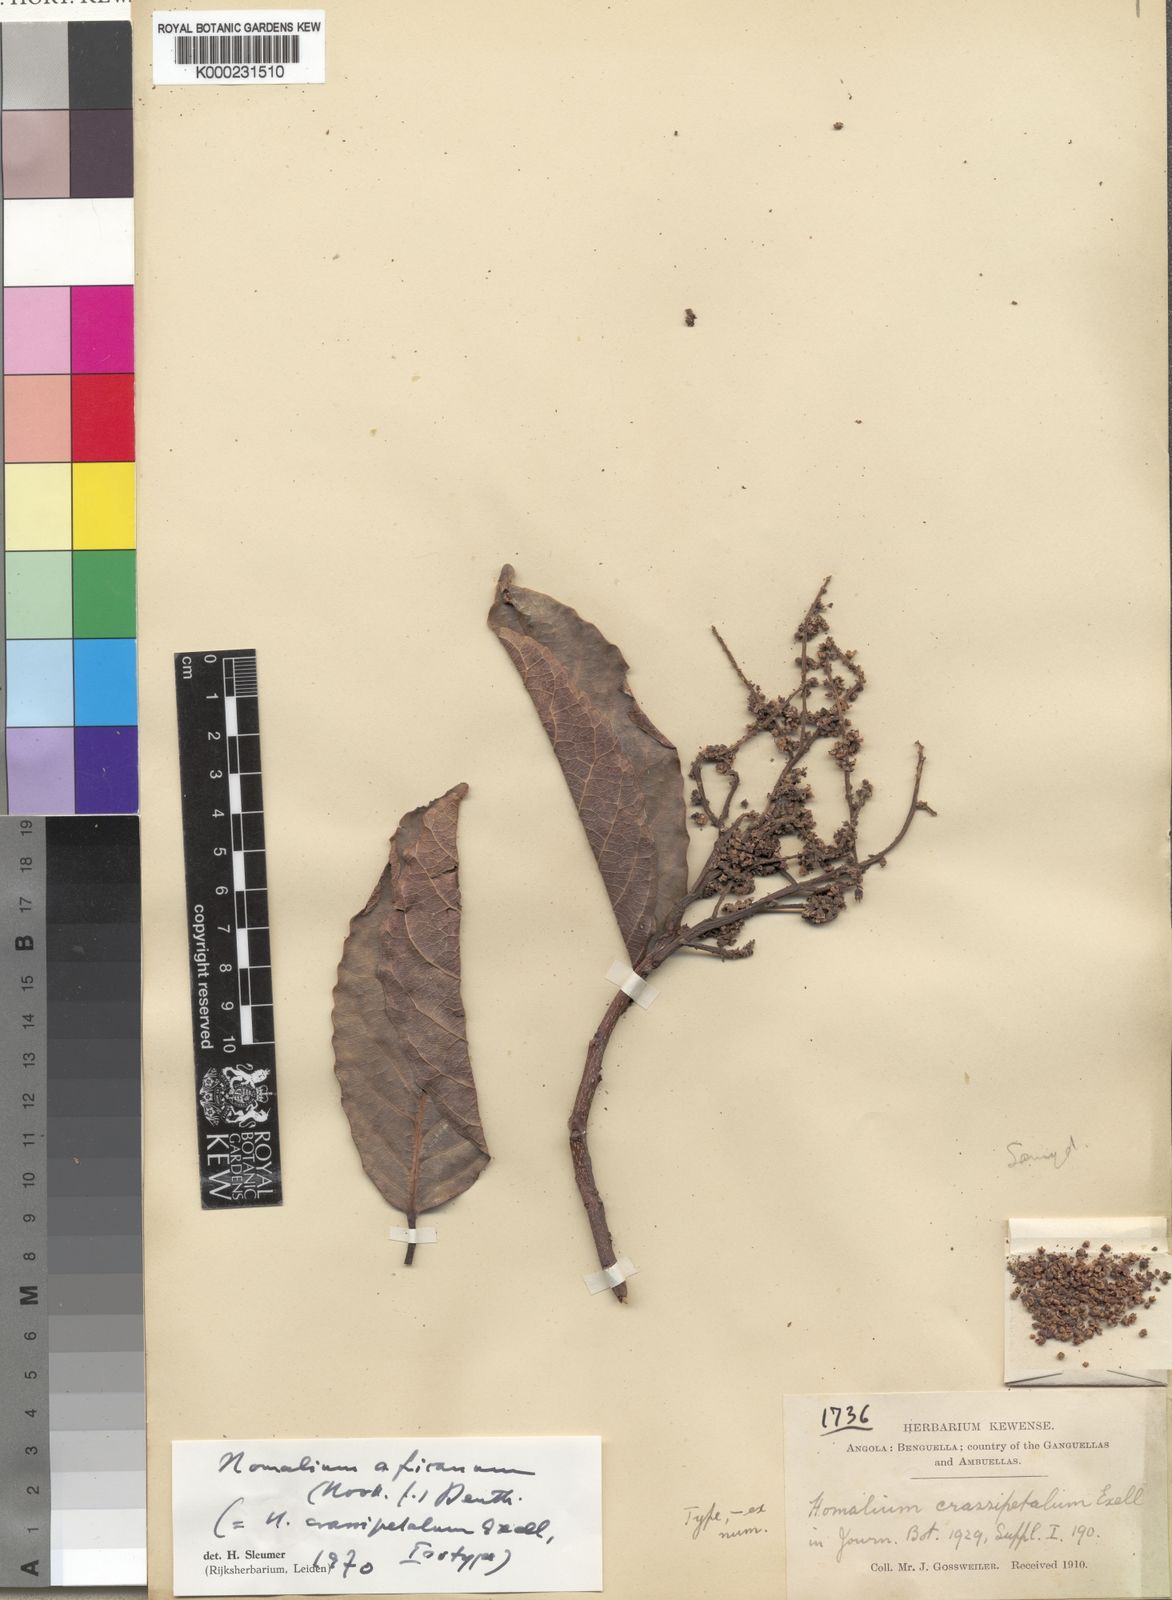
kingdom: Plantae
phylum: Tracheophyta
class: Magnoliopsida
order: Malpighiales
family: Salicaceae
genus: Homalium
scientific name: Homalium africanum
